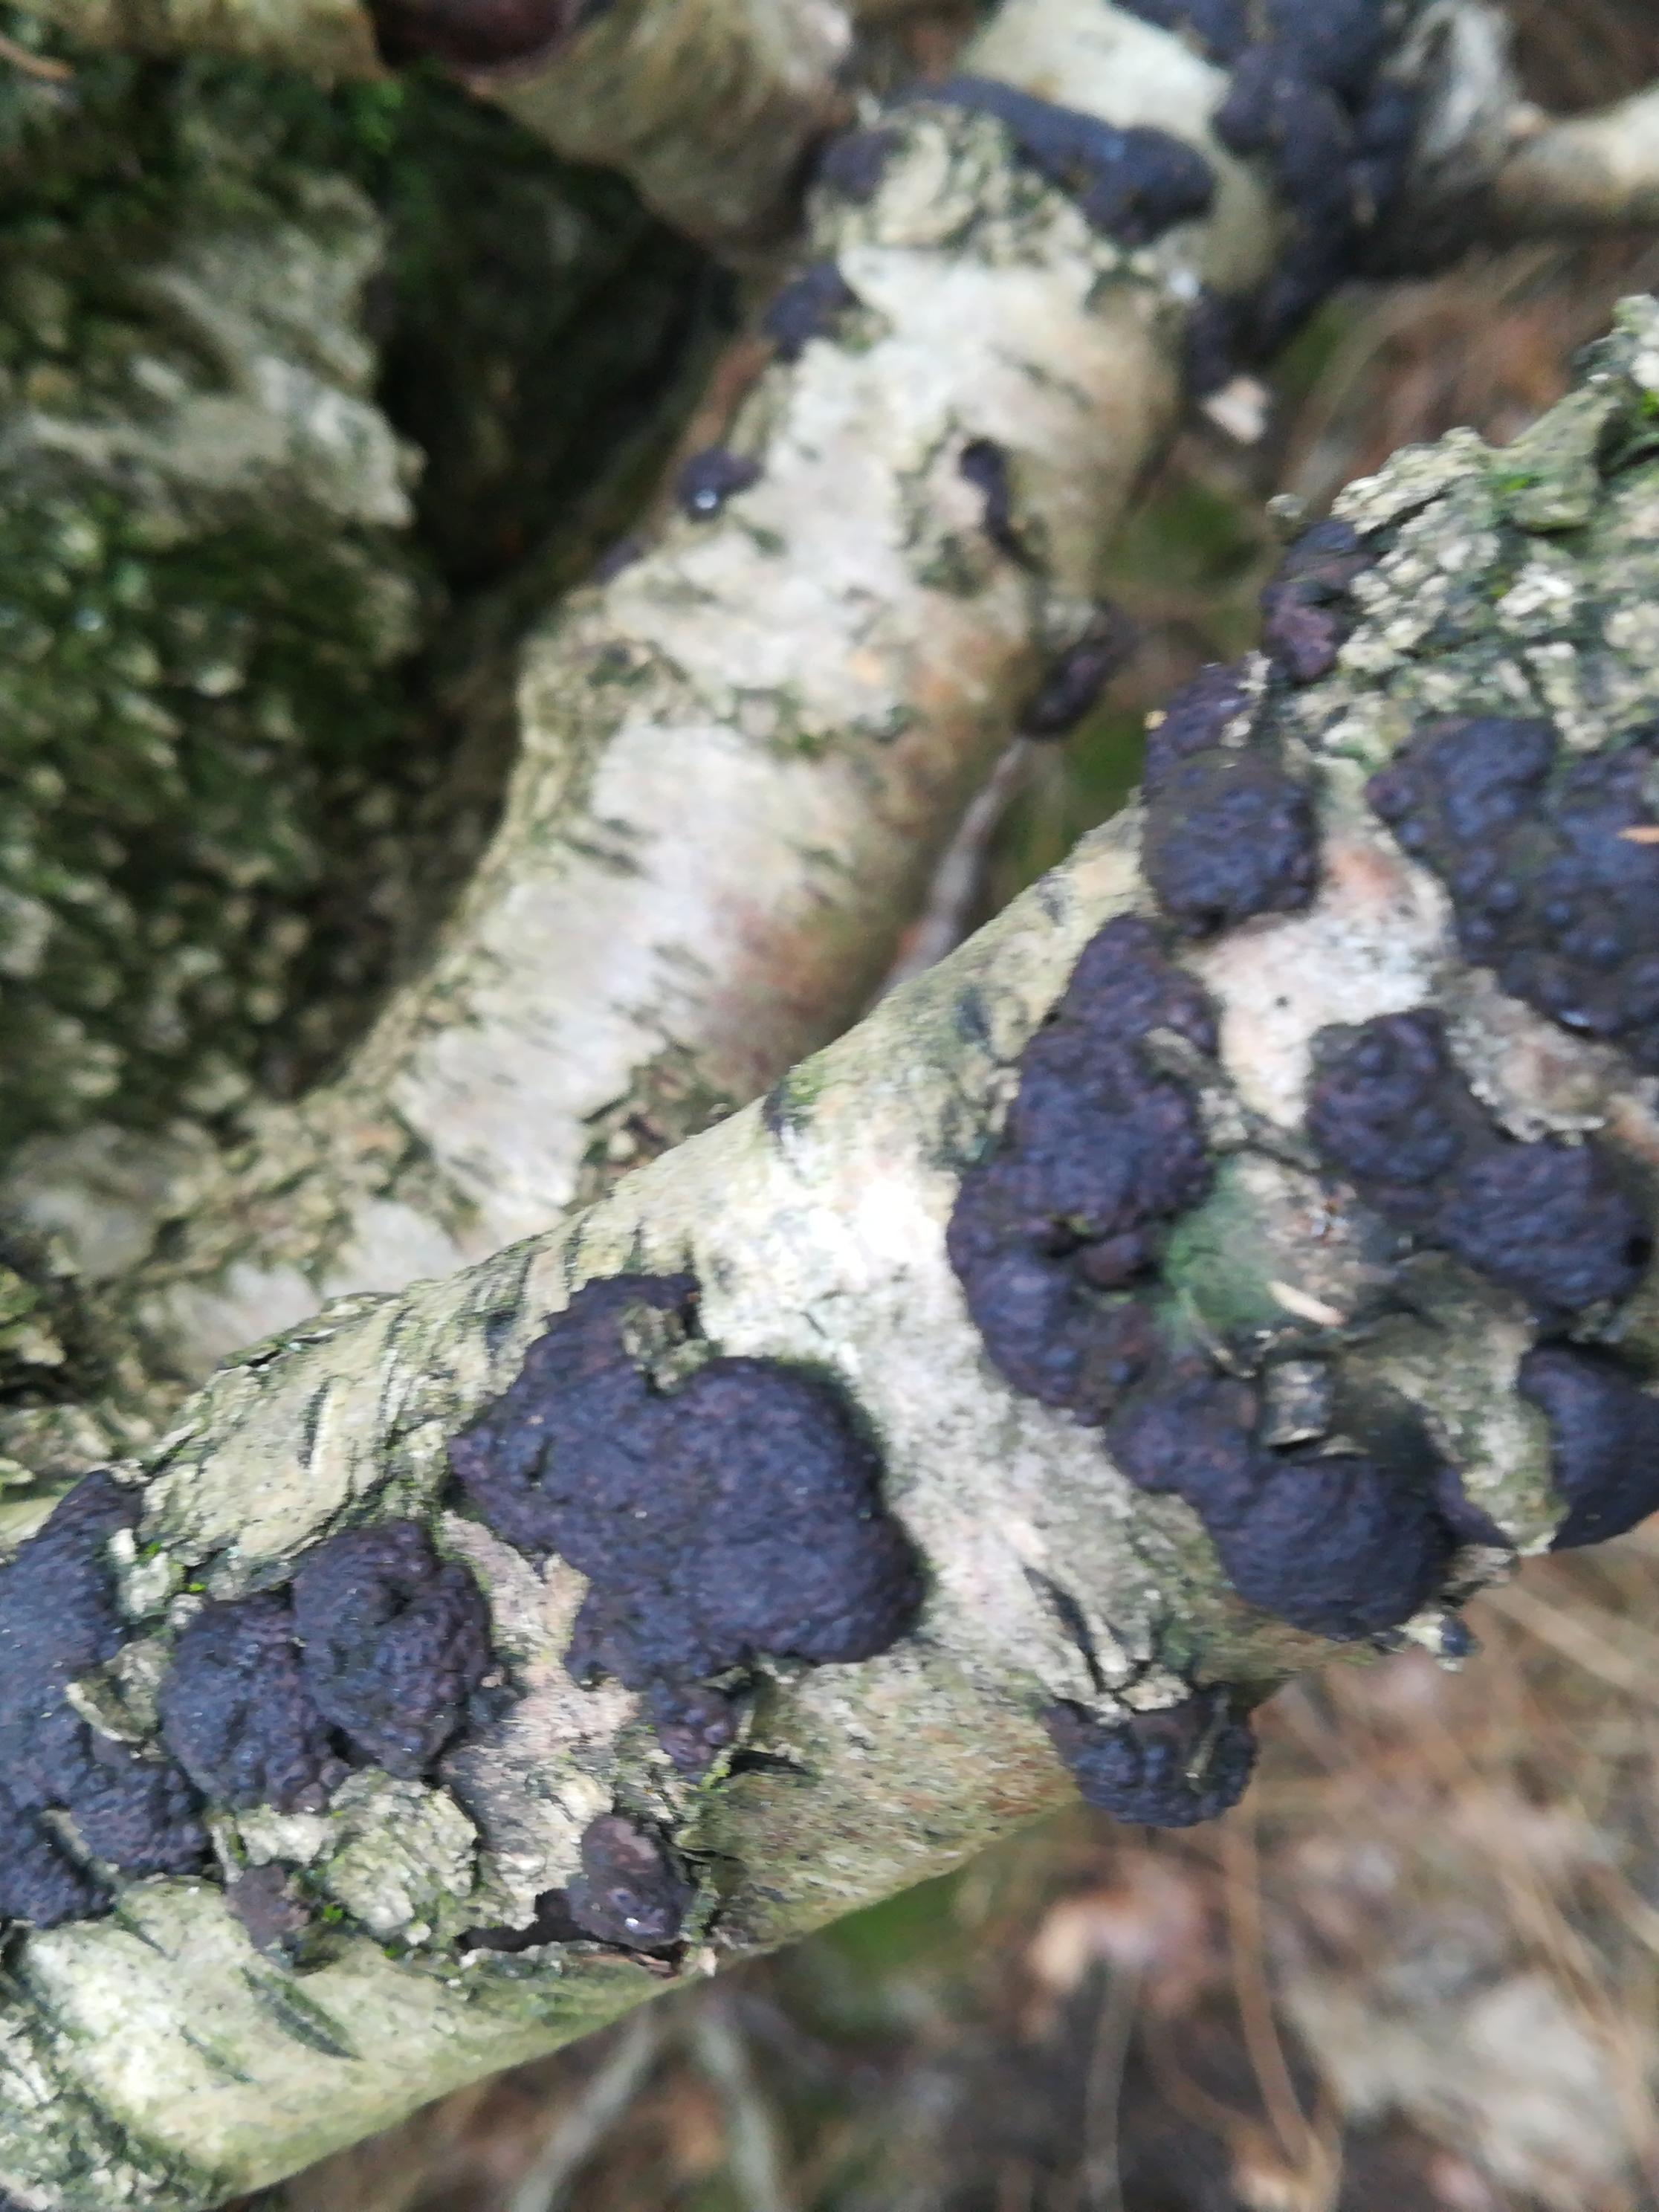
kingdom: Fungi
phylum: Ascomycota
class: Sordariomycetes
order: Xylariales
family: Hypoxylaceae
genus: Jackrogersella
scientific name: Jackrogersella multiformis
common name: foranderlig kulbær
